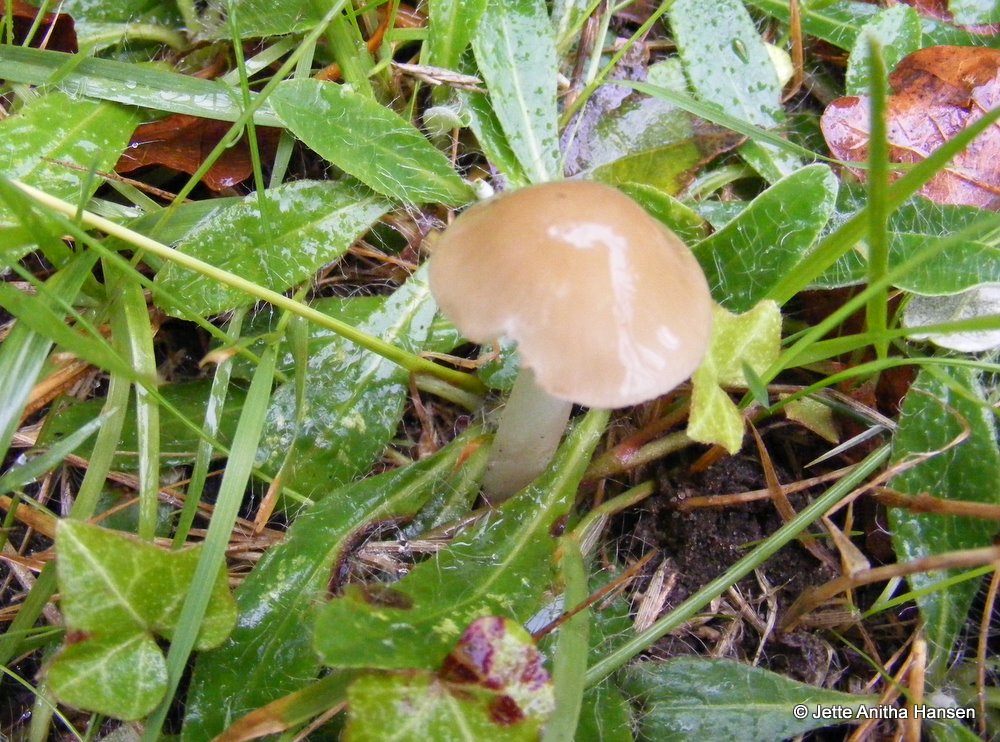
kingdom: Fungi
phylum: Basidiomycota
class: Agaricomycetes
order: Agaricales
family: Physalacriaceae
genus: Hymenopellis
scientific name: Hymenopellis radicata
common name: almindelig pælerodshat
